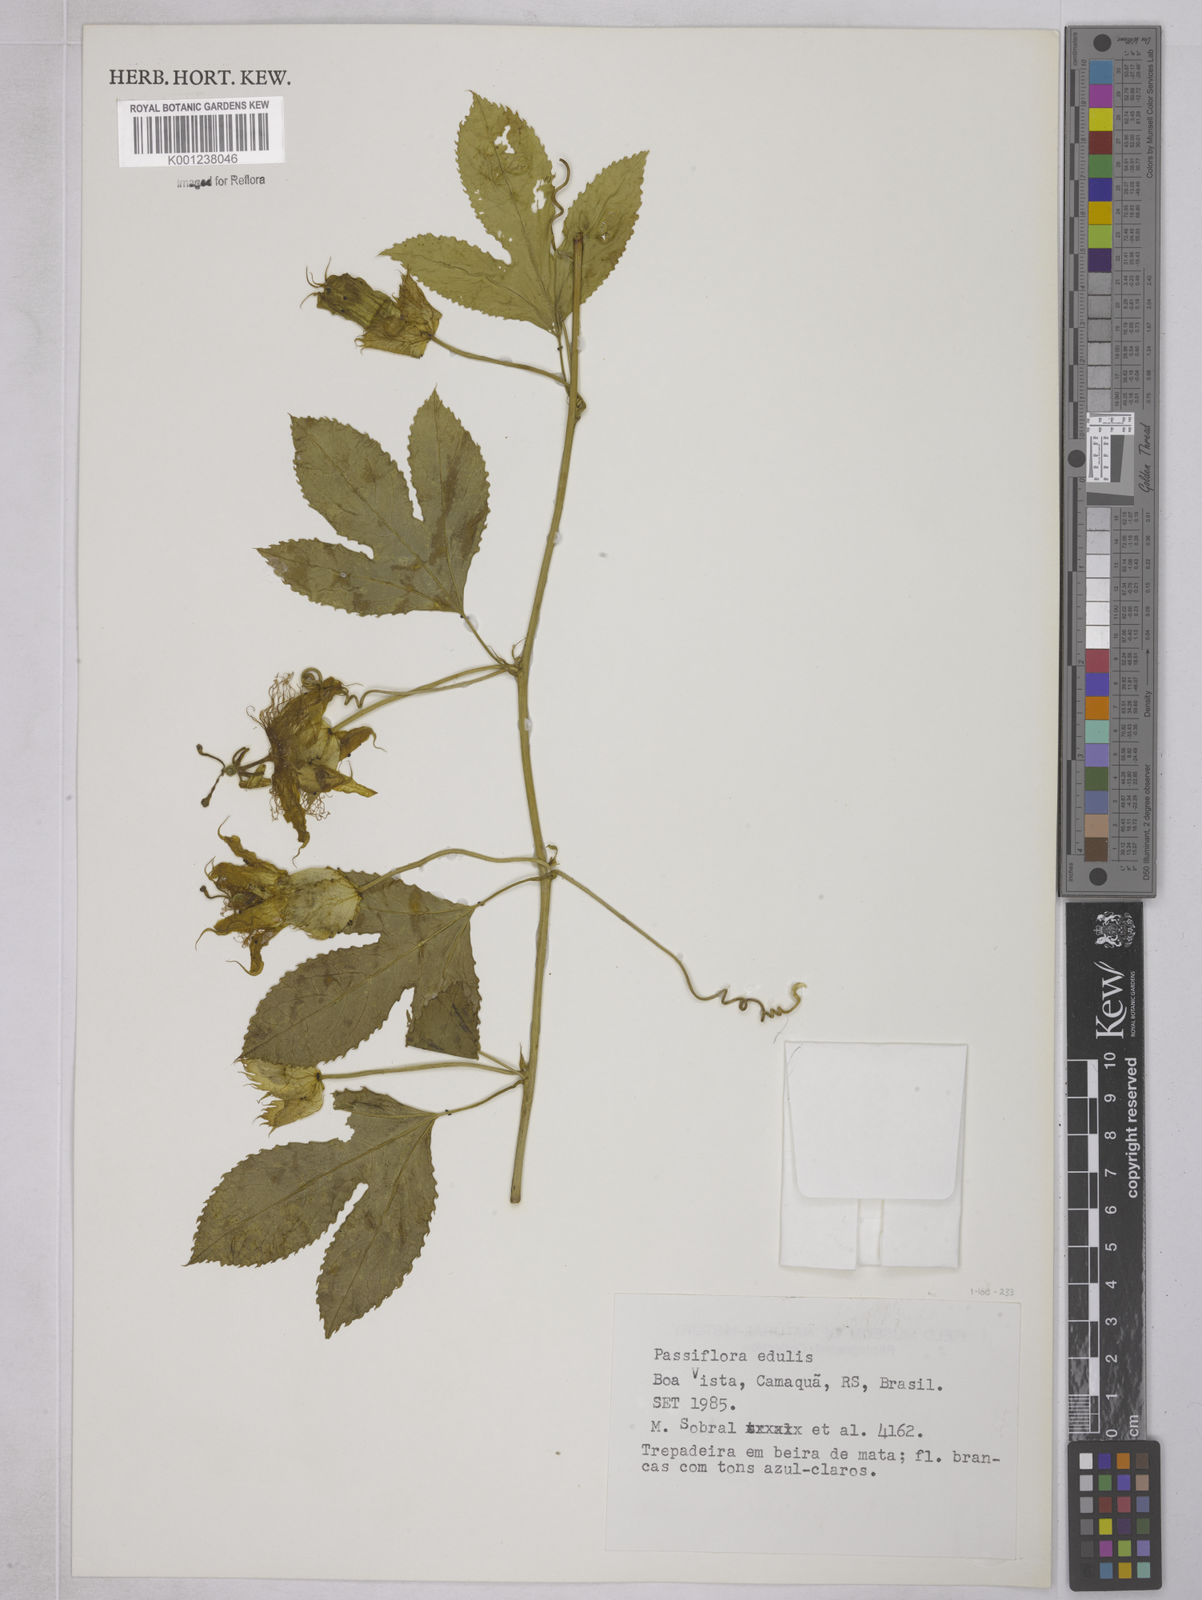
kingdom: Plantae
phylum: Tracheophyta
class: Magnoliopsida
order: Malpighiales
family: Passifloraceae
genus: Passiflora
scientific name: Passiflora edulis
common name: Purple granadilla
